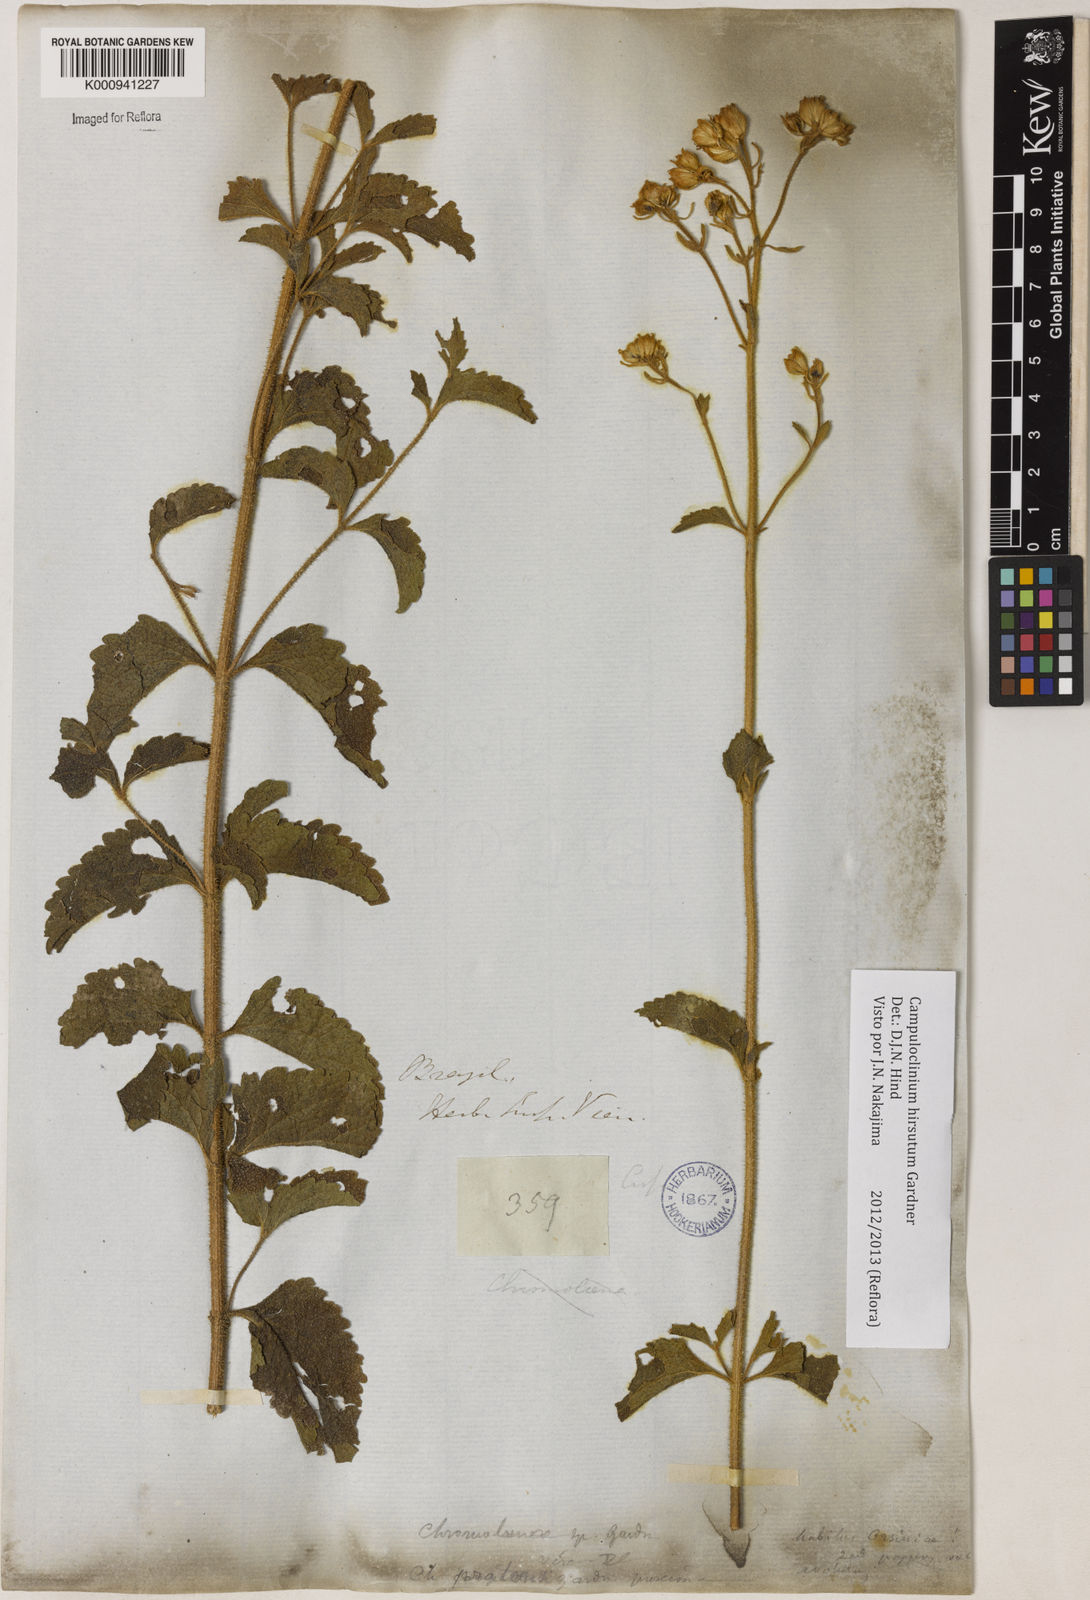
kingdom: Plantae
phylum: Tracheophyta
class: Magnoliopsida
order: Asterales
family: Asteraceae
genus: Campuloclinium
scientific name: Campuloclinium hirsutum
